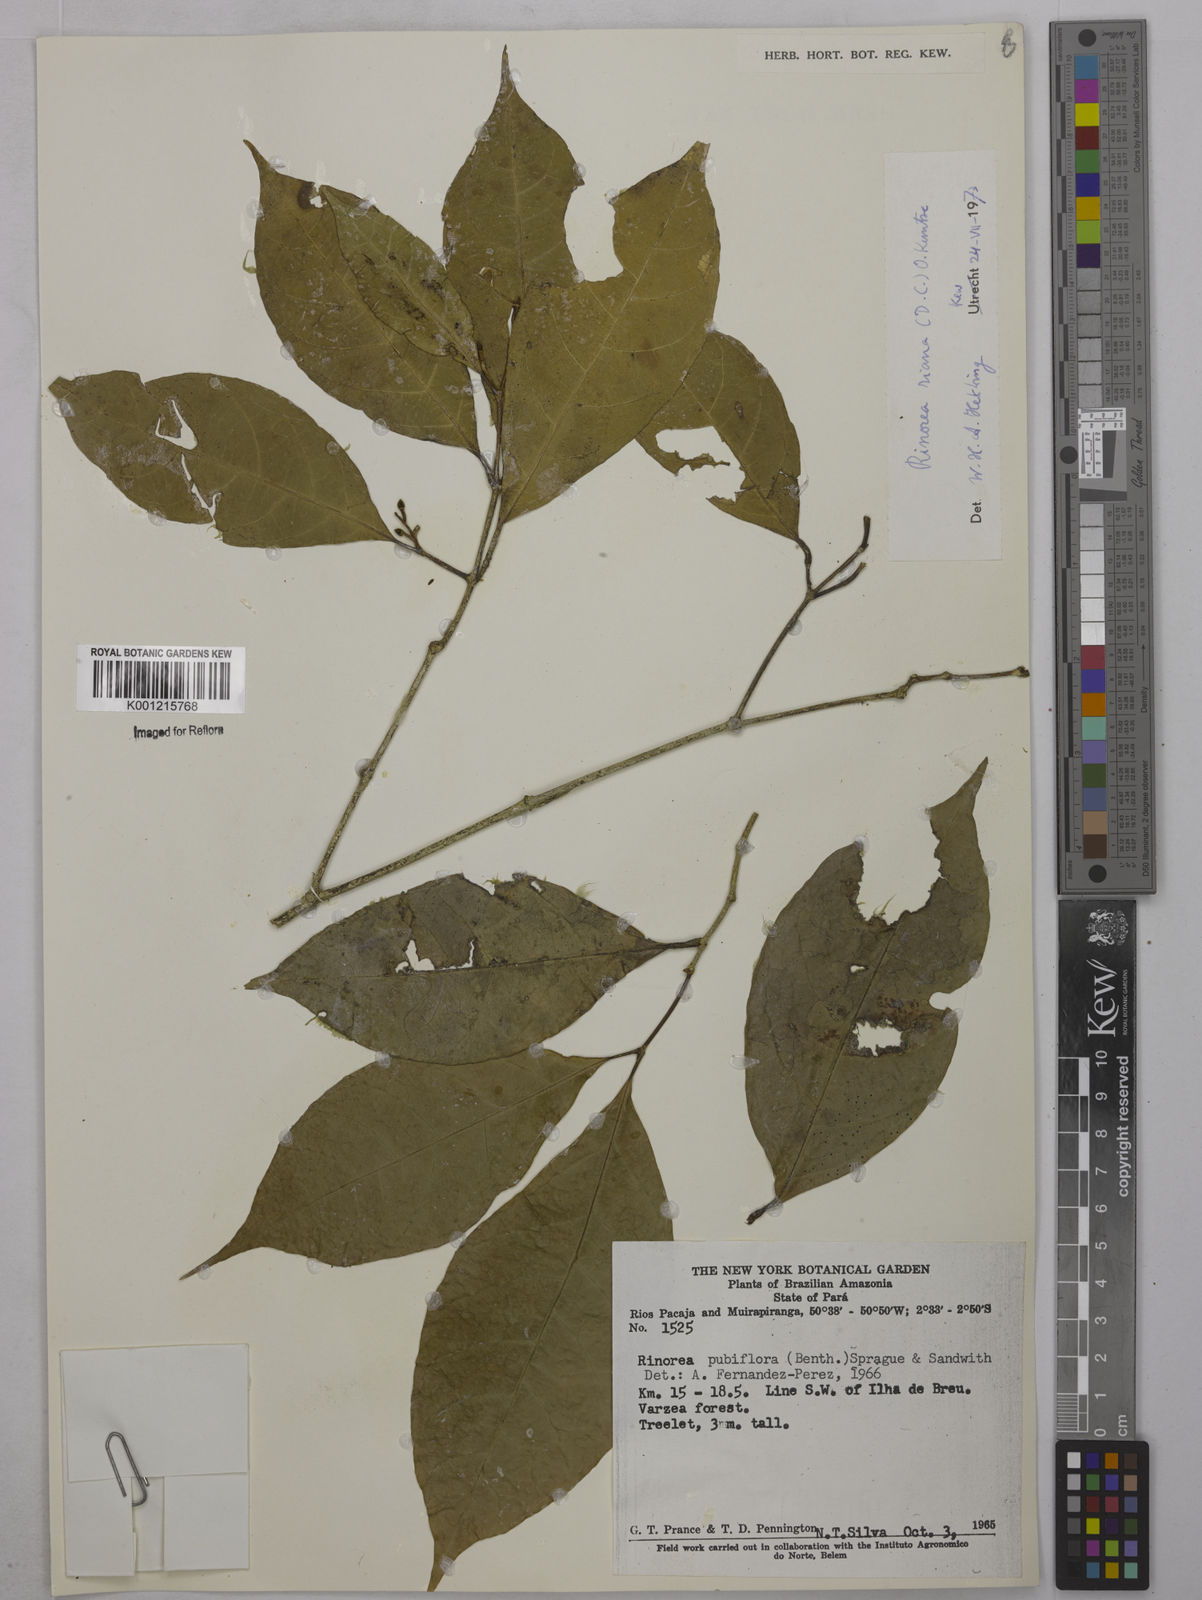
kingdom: Plantae
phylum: Tracheophyta
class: Magnoliopsida
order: Malpighiales
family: Violaceae
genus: Rinorea
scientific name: Rinorea riana
